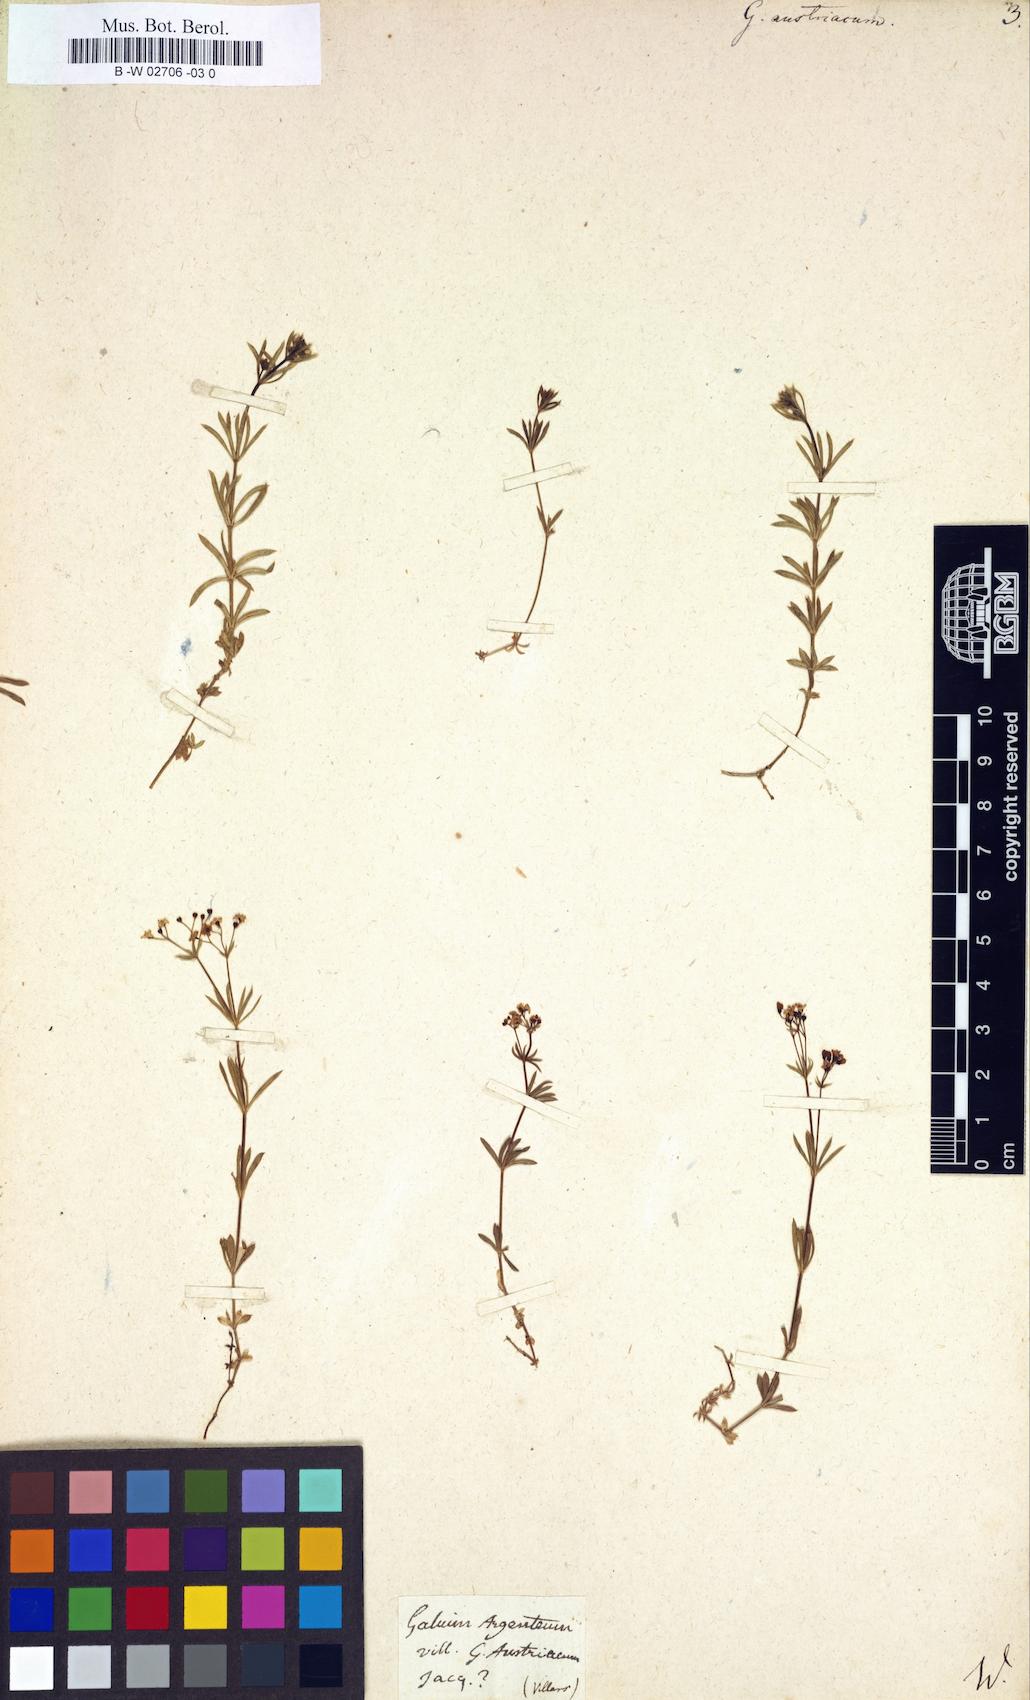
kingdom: Plantae
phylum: Tracheophyta
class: Magnoliopsida
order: Gentianales
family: Rubiaceae
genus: Galium
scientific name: Galium austriacum
